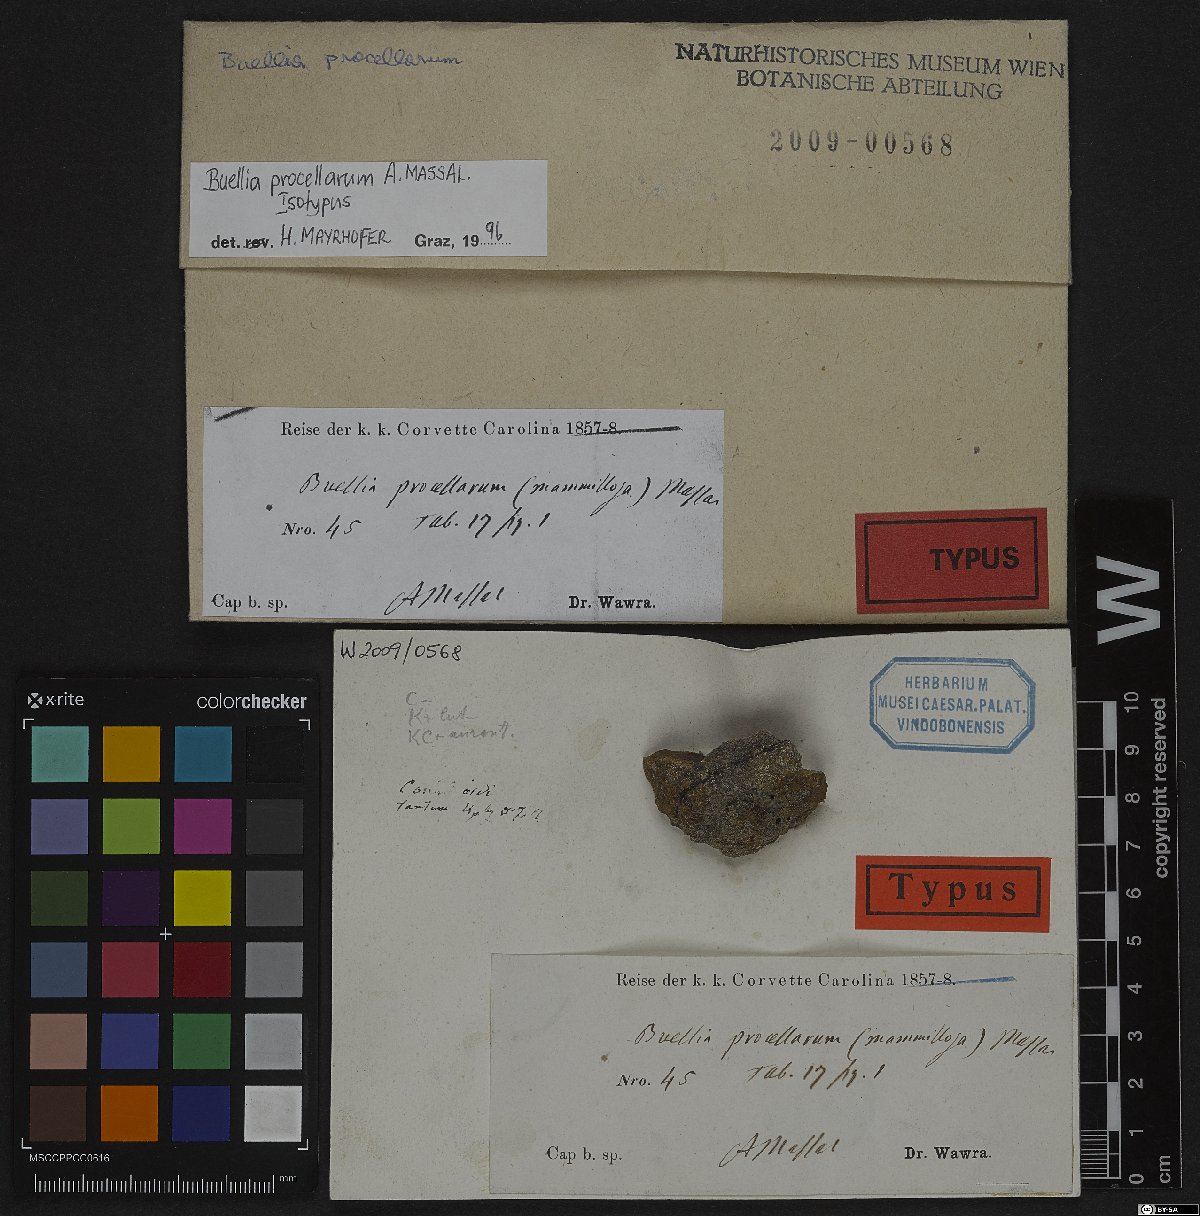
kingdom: Fungi
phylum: Ascomycota
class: Lecanoromycetes
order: Caliciales
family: Caliciaceae
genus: Buellia
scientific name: Buellia procellarum
